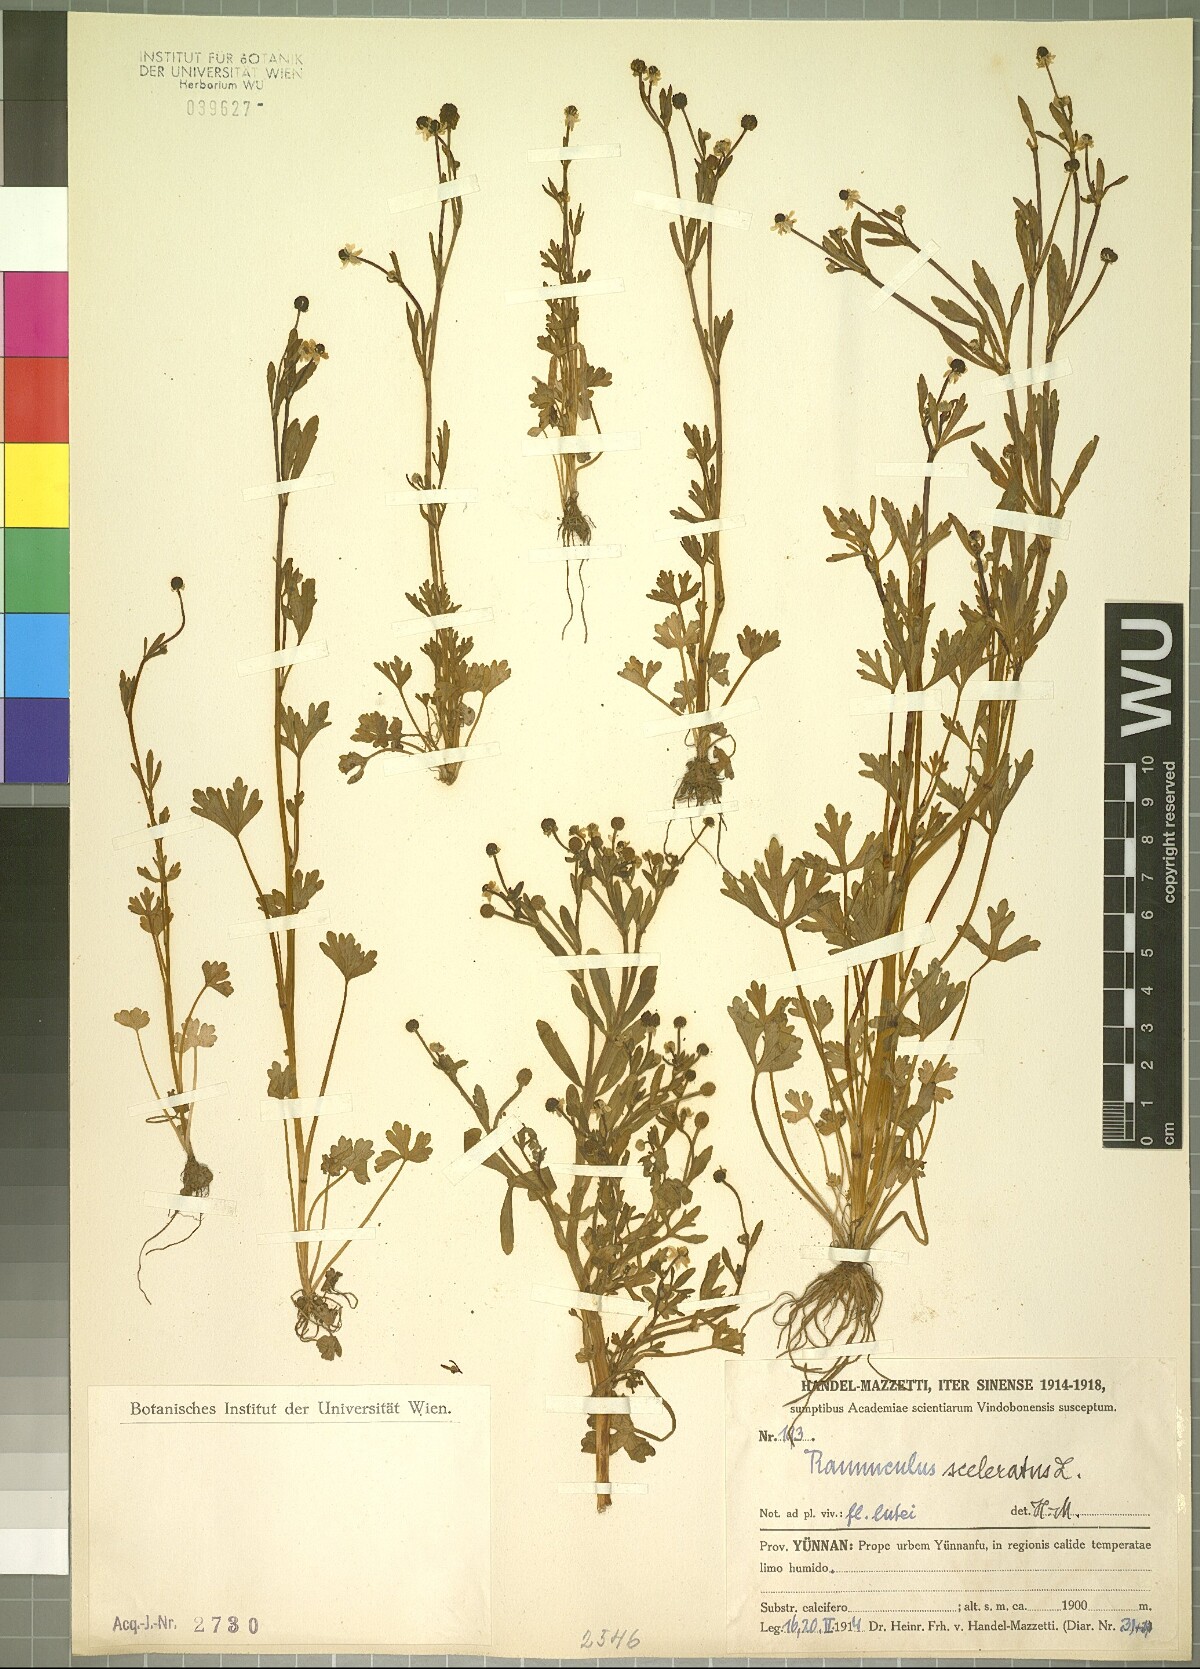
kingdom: Plantae
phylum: Tracheophyta
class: Magnoliopsida
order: Ranunculales
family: Ranunculaceae
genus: Ranunculus
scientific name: Ranunculus sceleratus
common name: Celery-leaved buttercup
